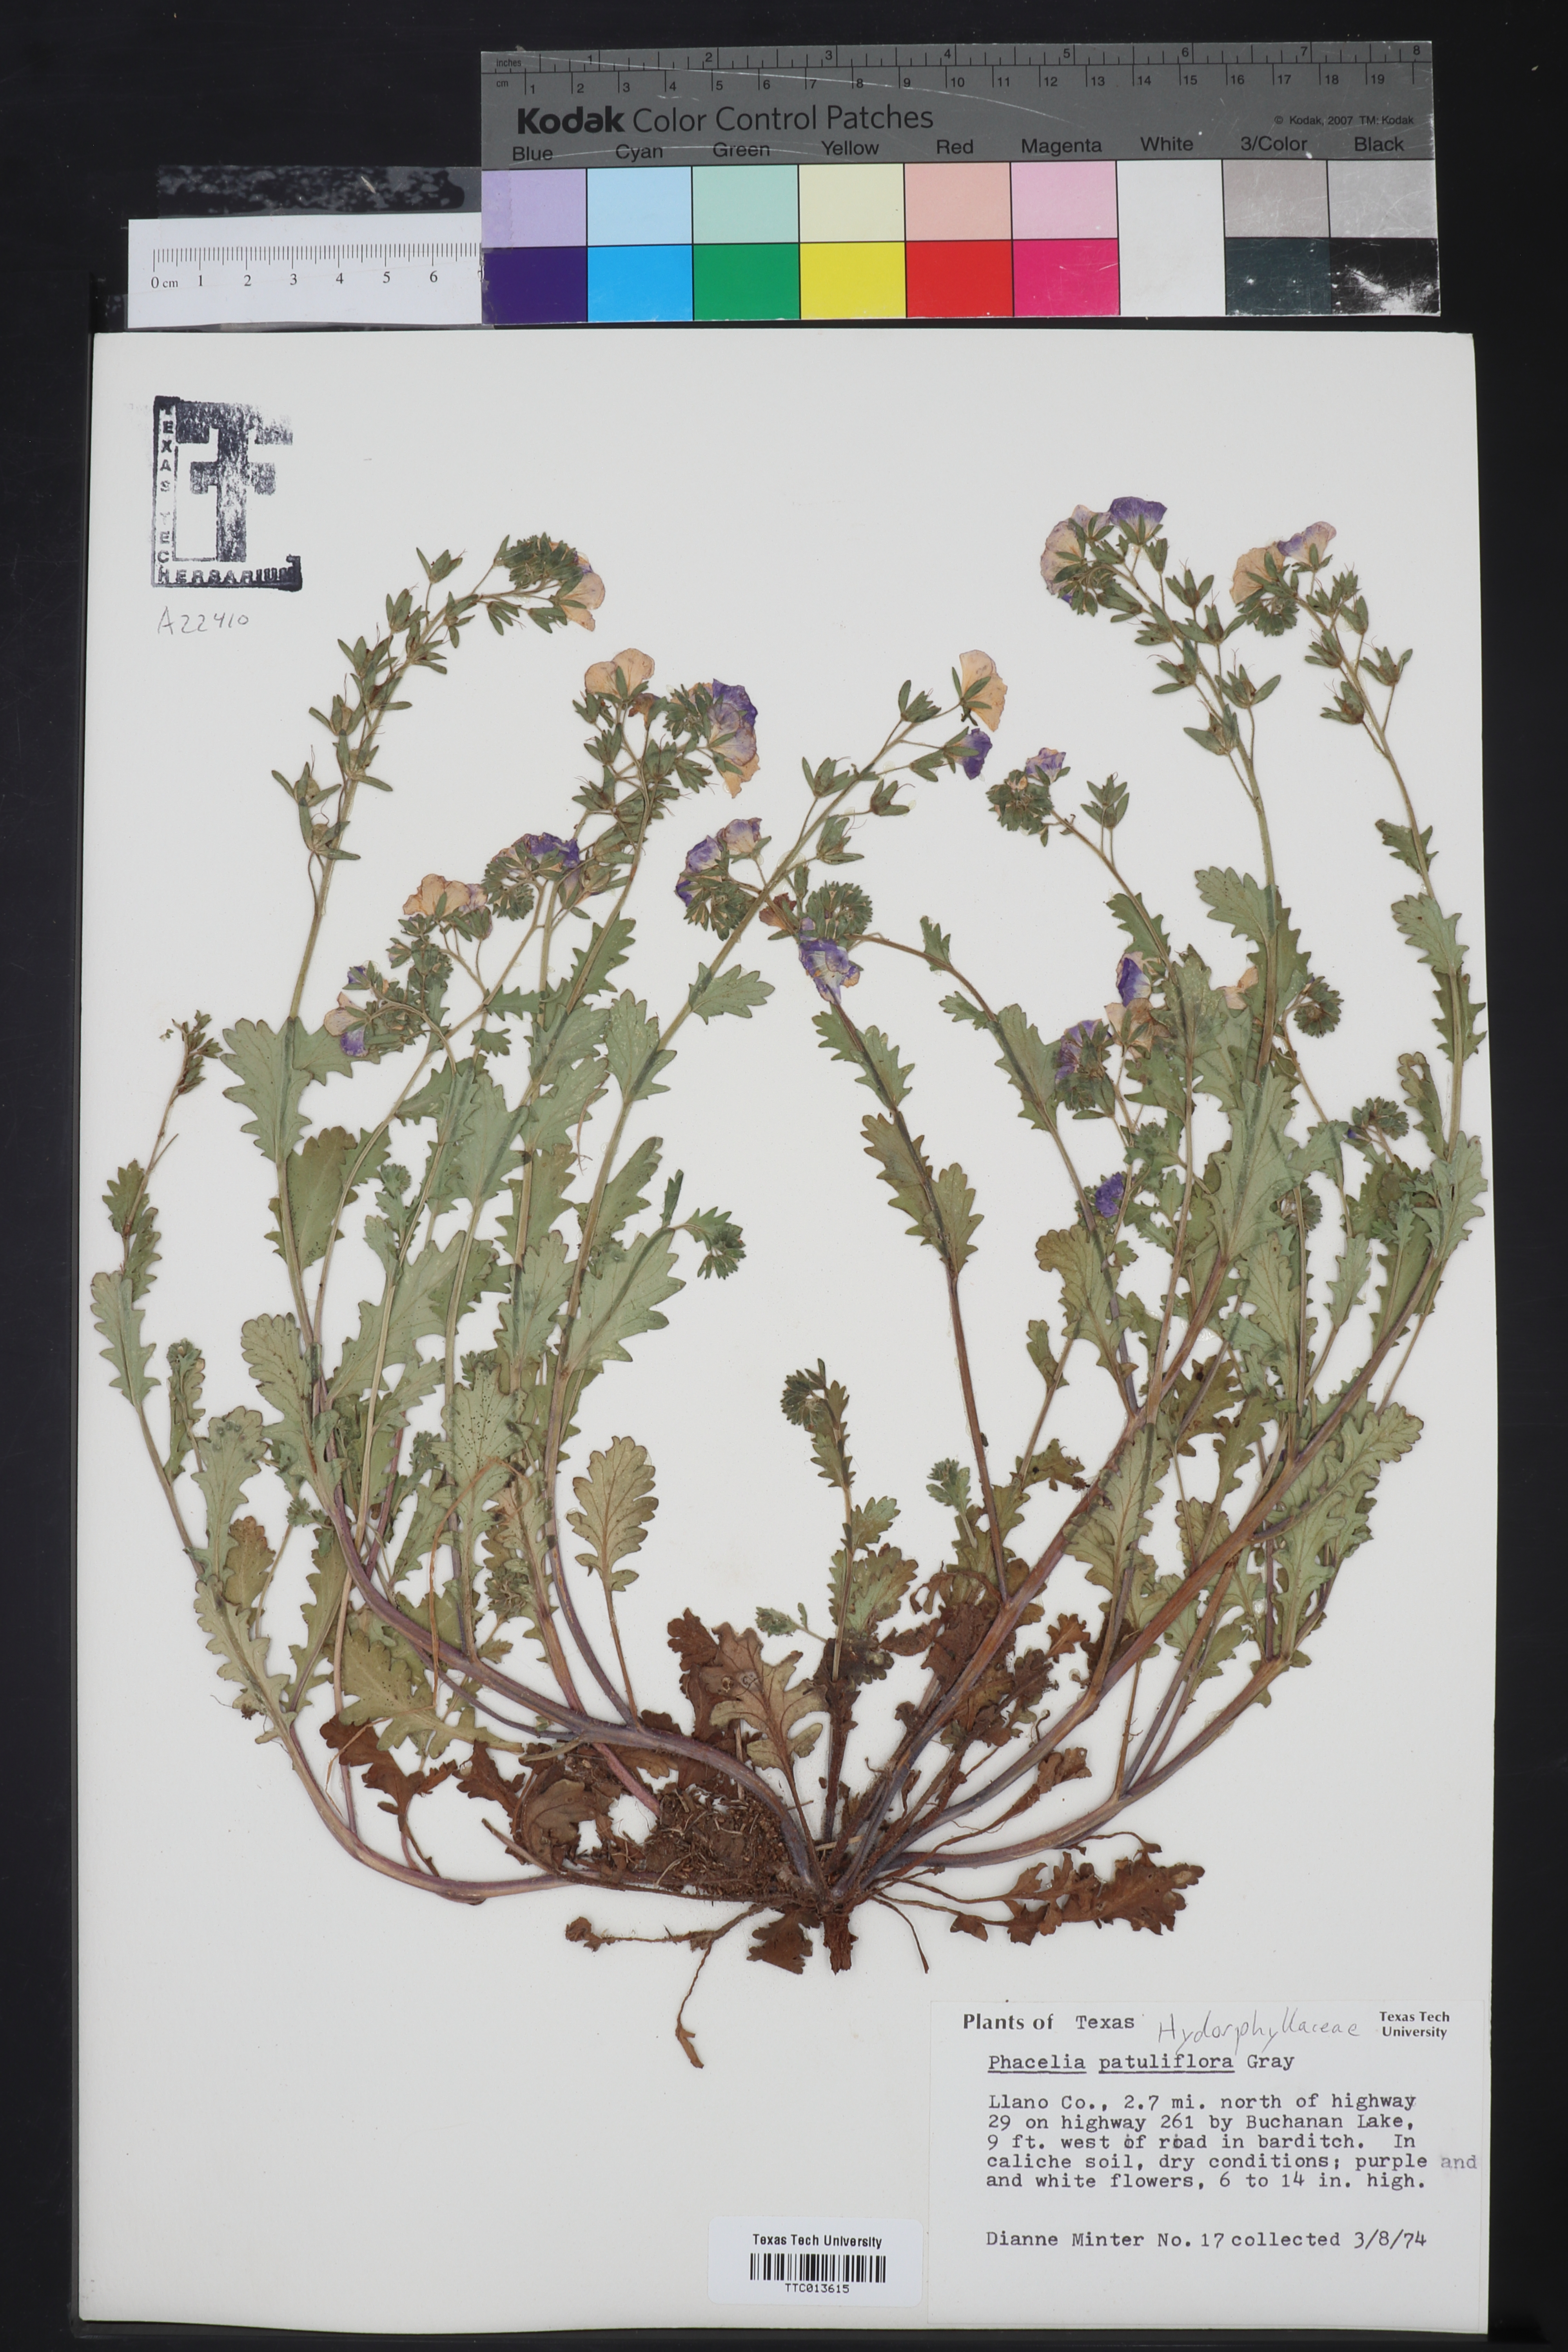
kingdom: Plantae
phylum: Tracheophyta
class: Magnoliopsida
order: Boraginales
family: Hydrophyllaceae
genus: Phacelia
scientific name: Phacelia patuliflora
